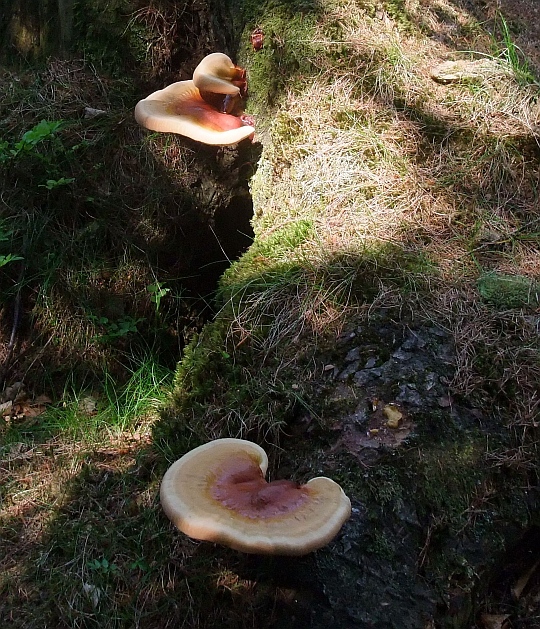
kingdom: Fungi
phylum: Basidiomycota
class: Agaricomycetes
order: Polyporales
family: Polyporaceae
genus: Ganoderma
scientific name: Ganoderma lucidum
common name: skinnende lakporesvamp
